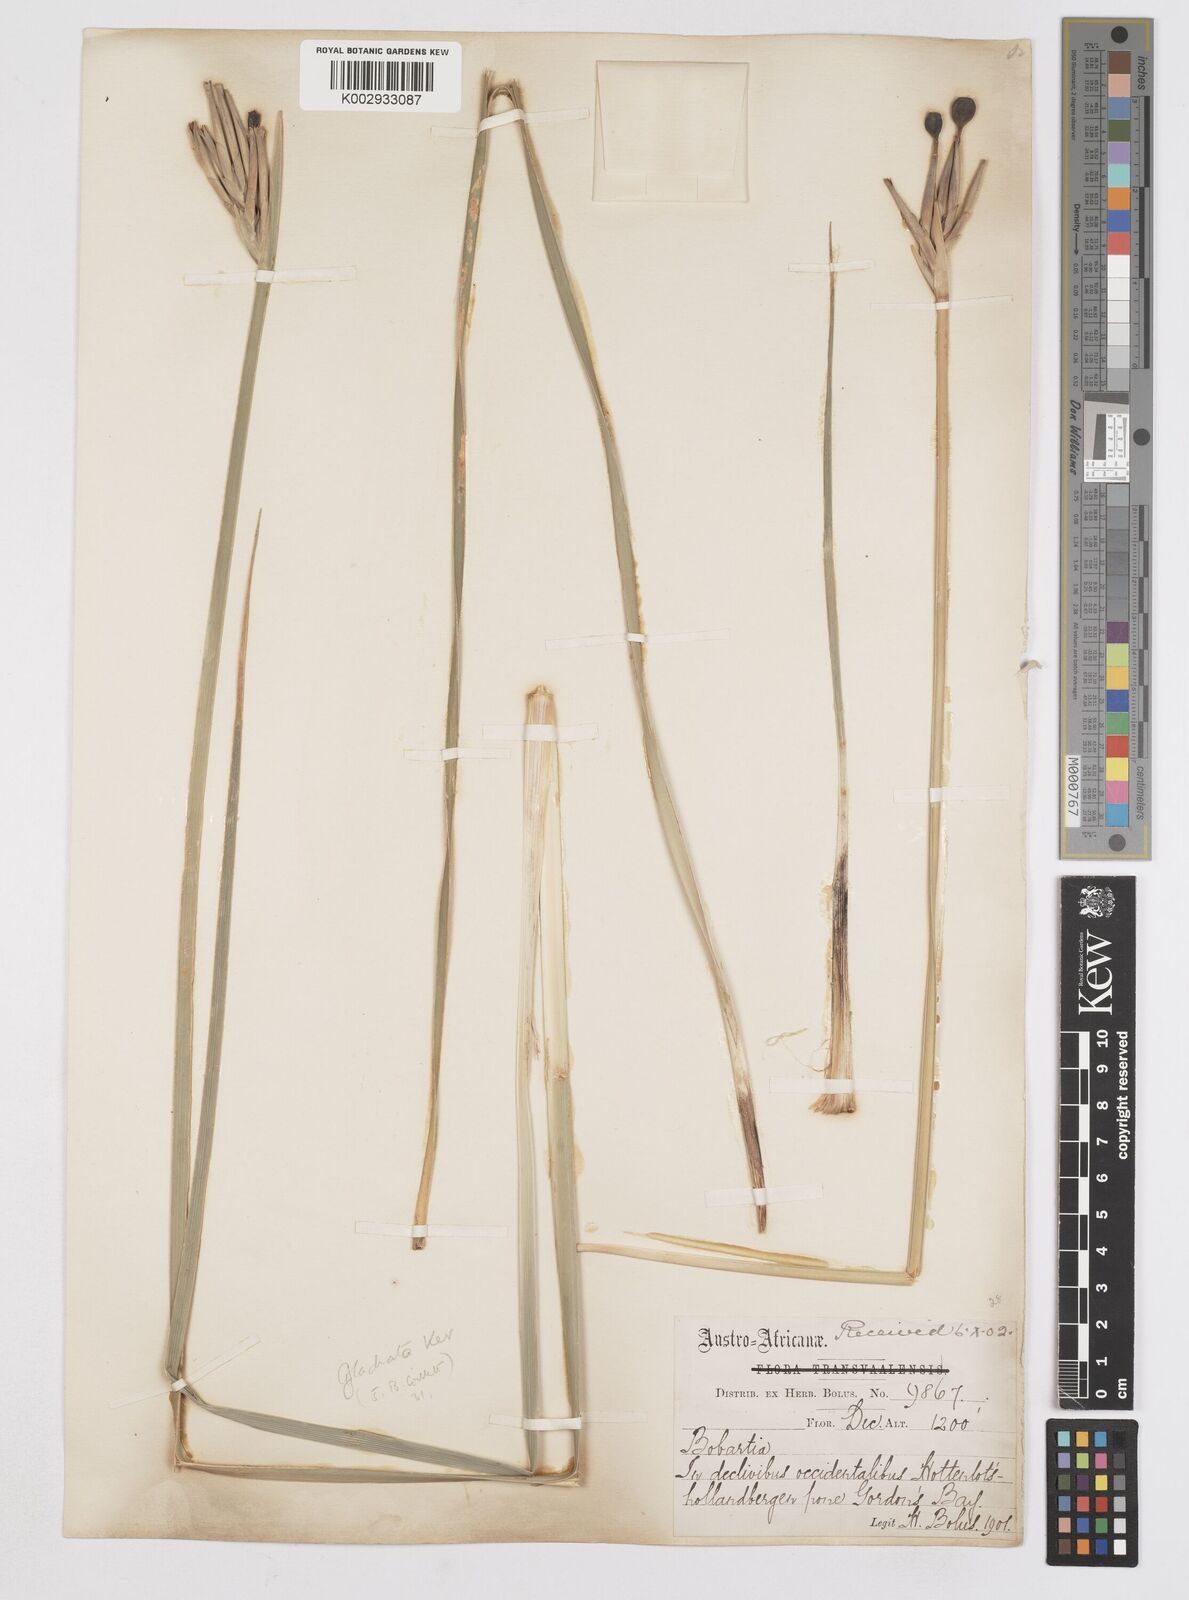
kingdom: Plantae
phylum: Tracheophyta
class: Liliopsida
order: Asparagales
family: Iridaceae
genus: Bobartia
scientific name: Bobartia gladiata
